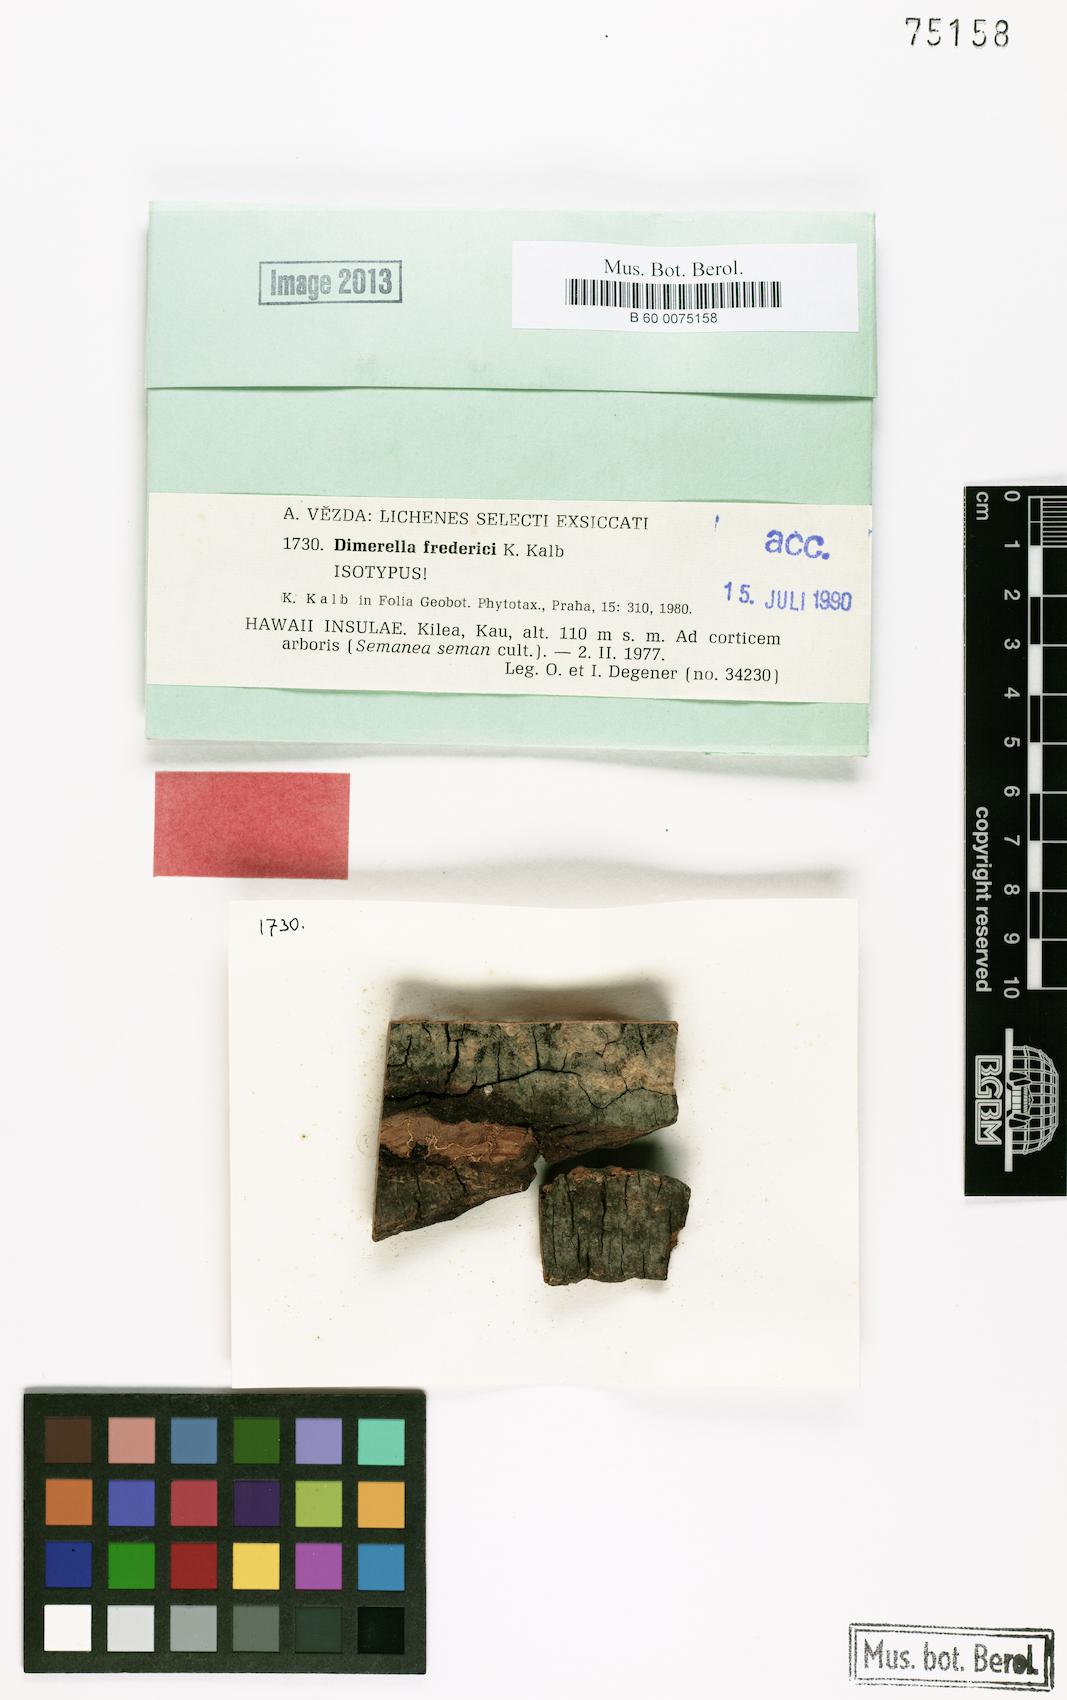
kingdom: Fungi
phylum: Ascomycota
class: Lecanoromycetes
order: Gyalectales
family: Gyalectaceae
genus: Dimerella
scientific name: Dimerella fredrici
